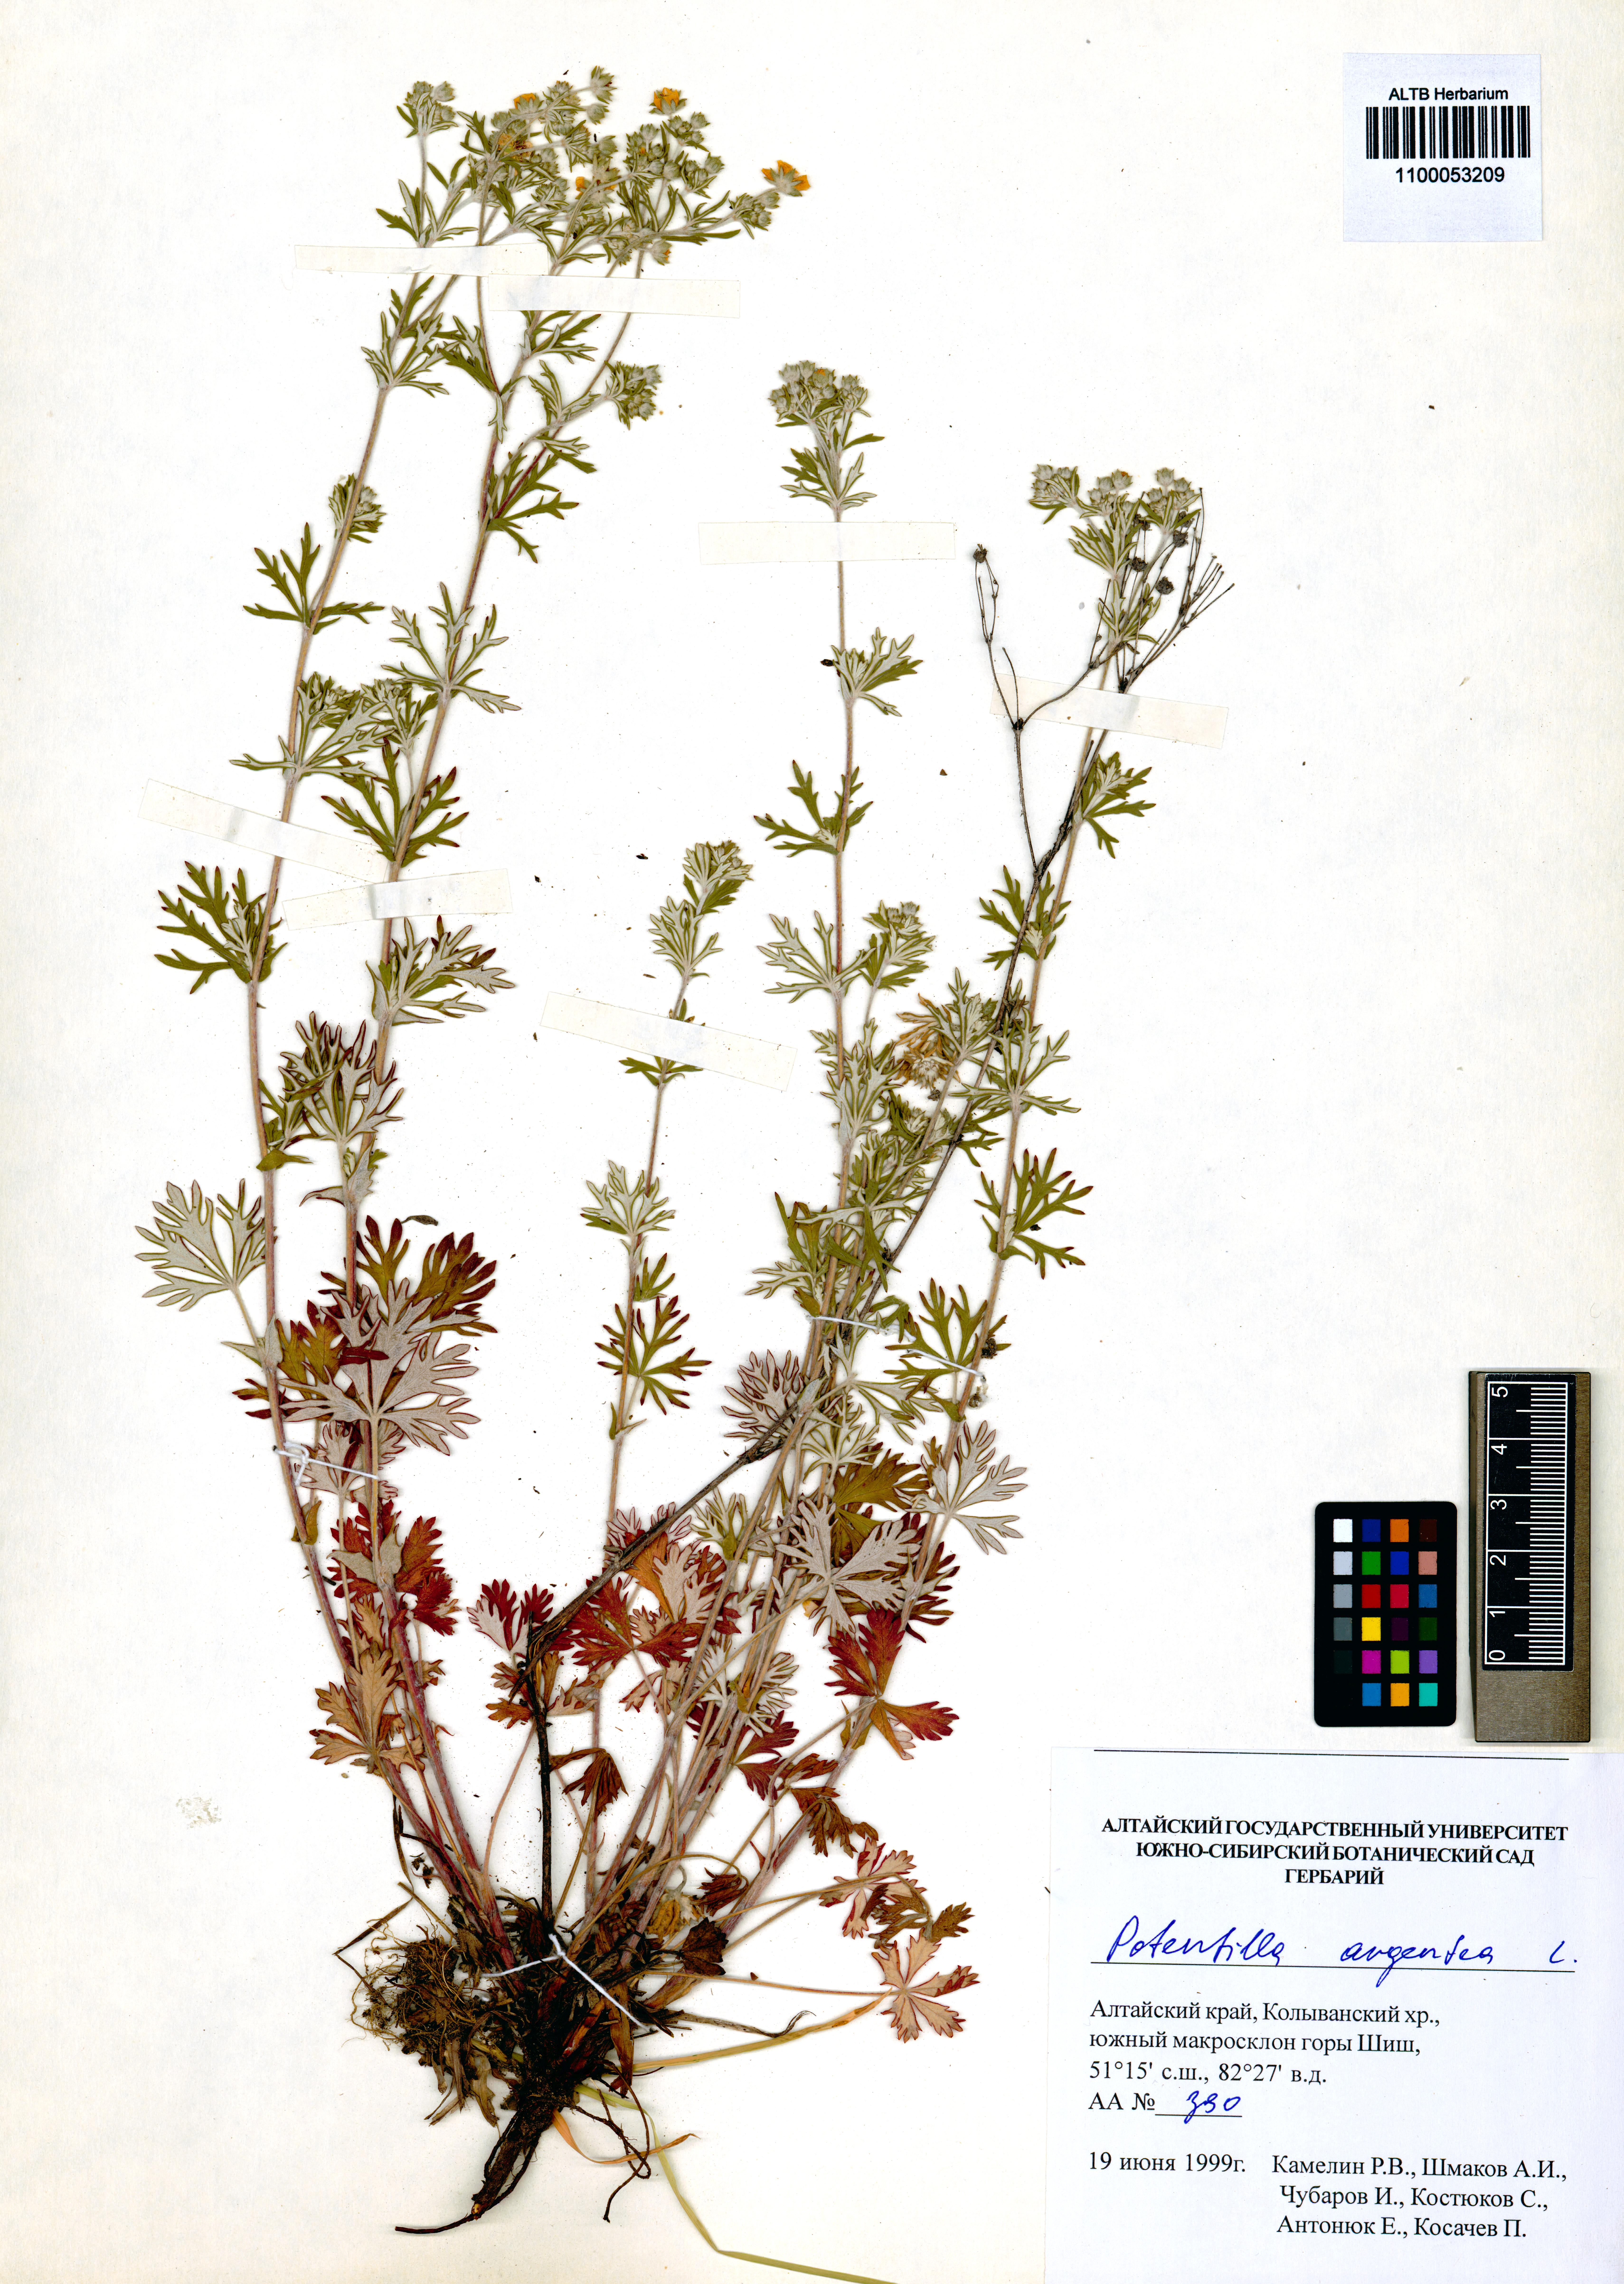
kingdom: Plantae
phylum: Tracheophyta
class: Magnoliopsida
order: Rosales
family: Rosaceae
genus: Potentilla
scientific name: Potentilla argentea
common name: Hoary cinquefoil
